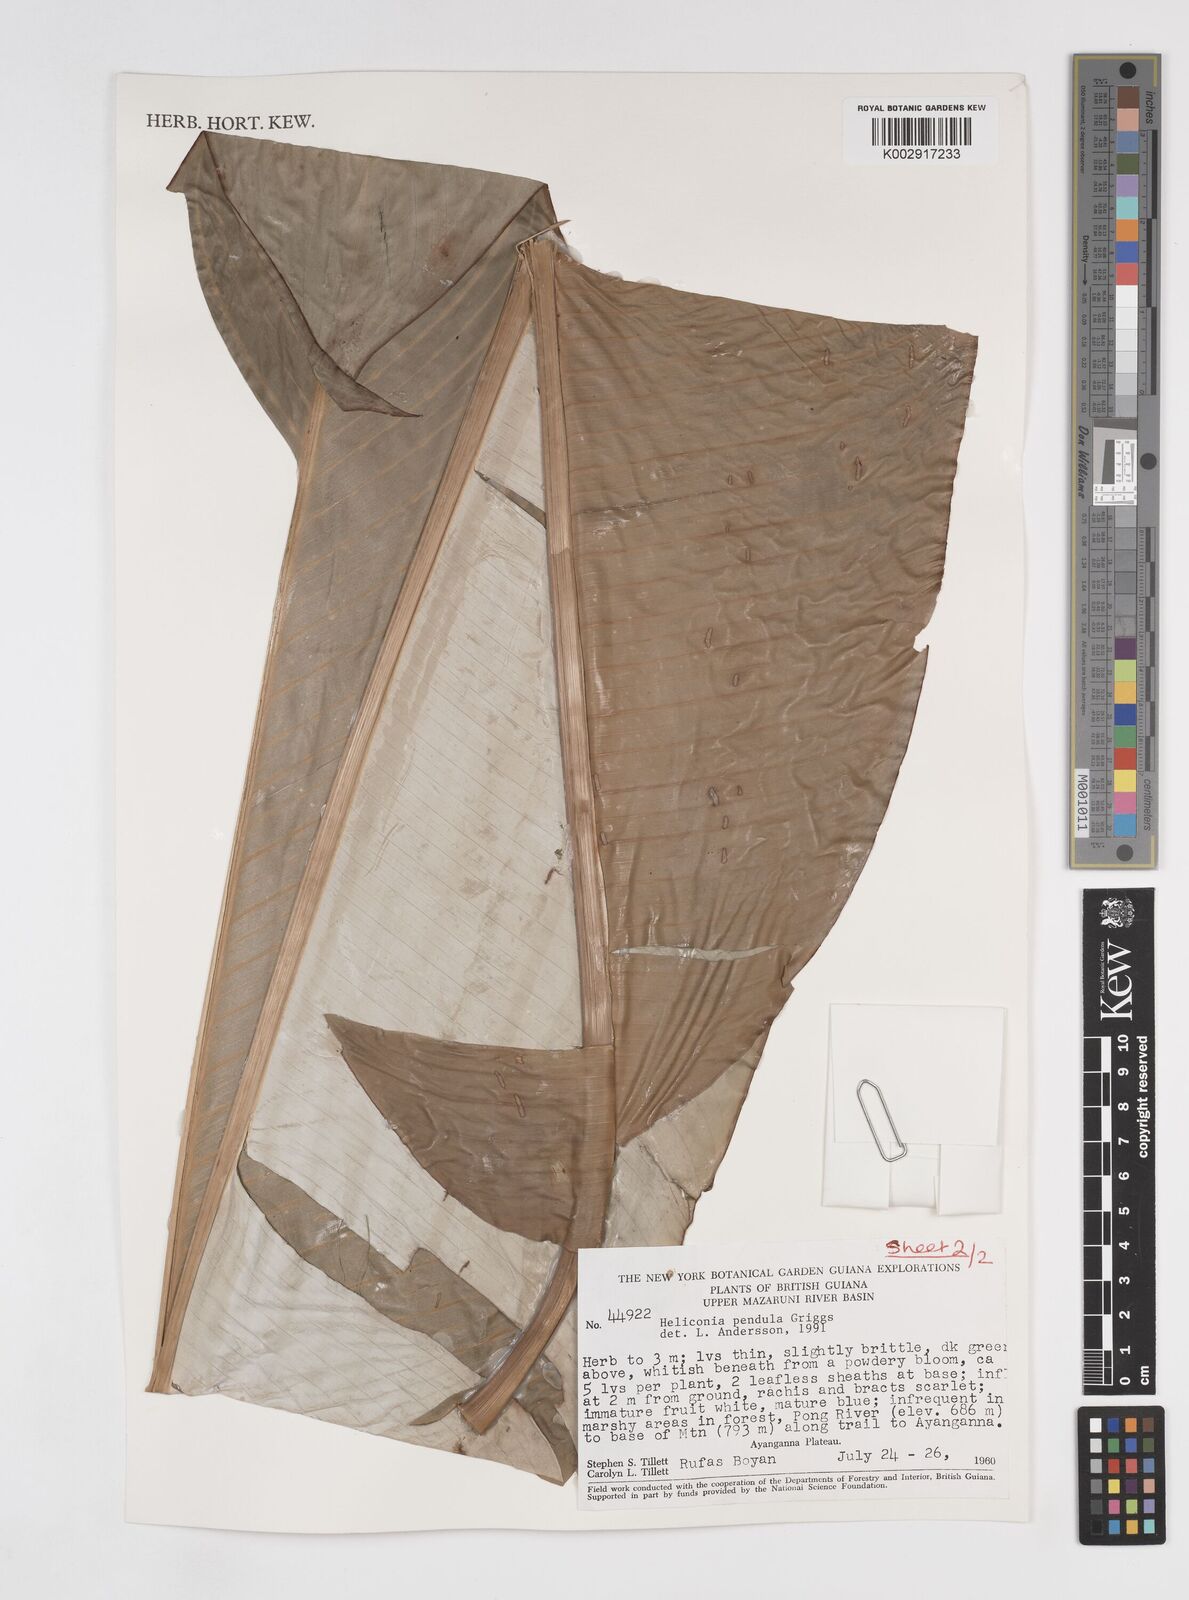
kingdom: Plantae
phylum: Tracheophyta
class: Liliopsida
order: Zingiberales
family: Heliconiaceae
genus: Heliconia
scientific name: Heliconia pendula
